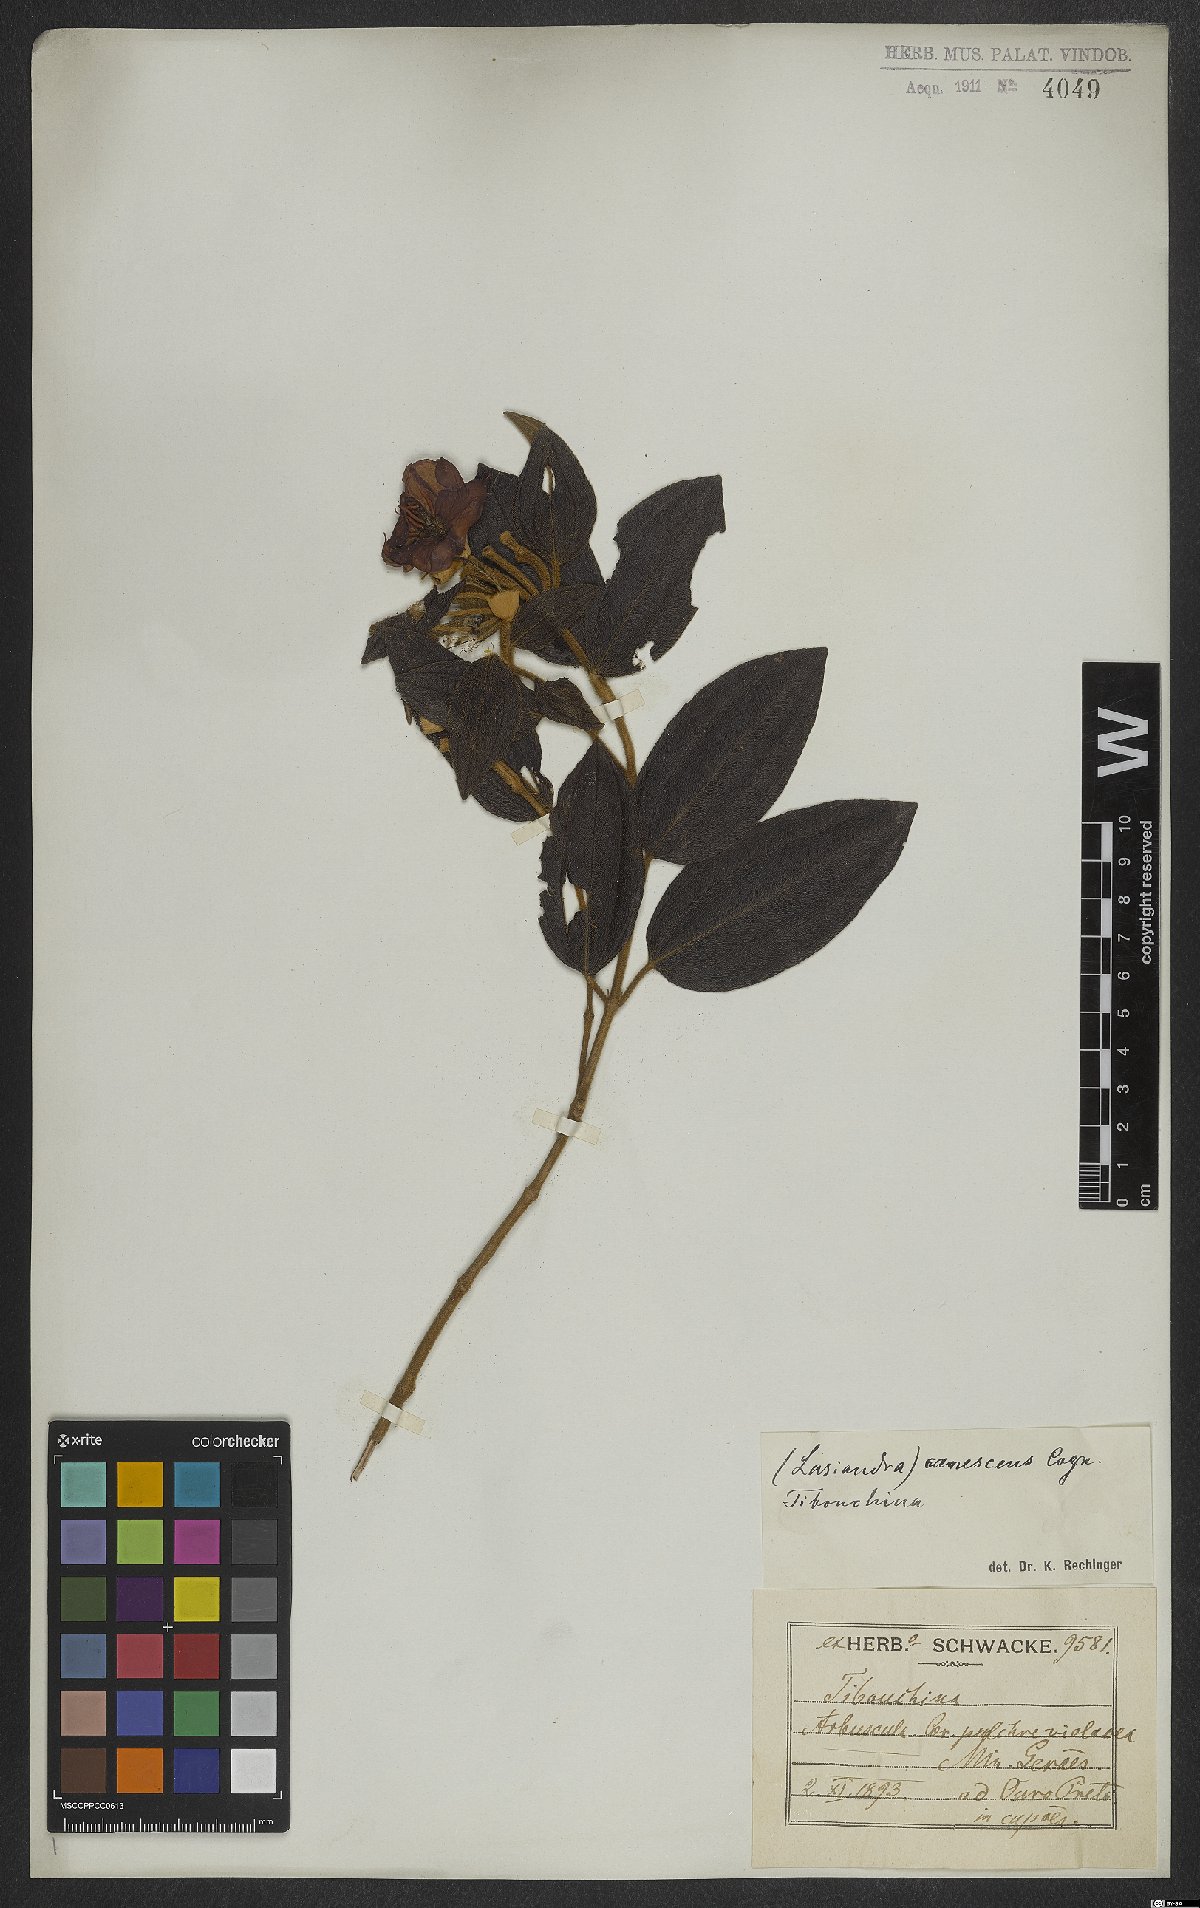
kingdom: Plantae
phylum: Tracheophyta
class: Magnoliopsida
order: Myrtales
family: Melastomataceae
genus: Pleroma
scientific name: Pleroma canescens
